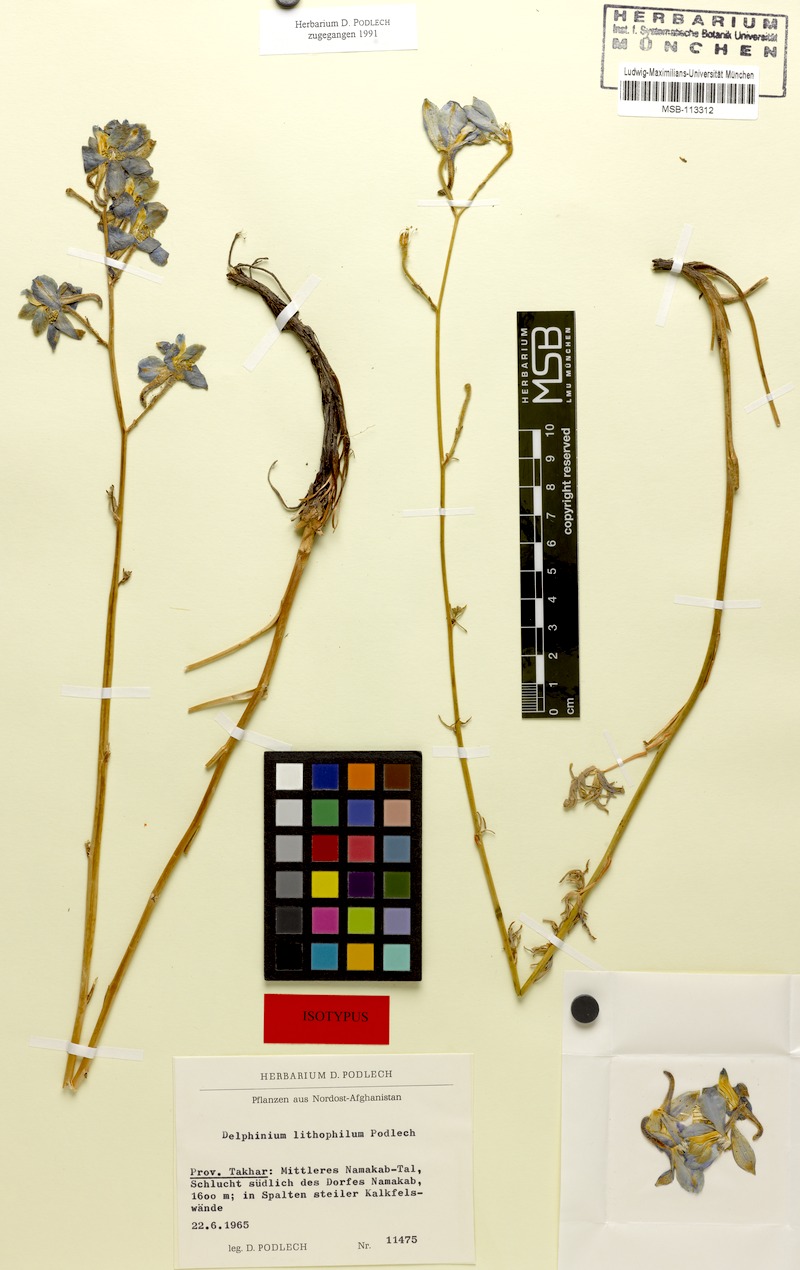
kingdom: Plantae
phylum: Tracheophyta
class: Magnoliopsida
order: Ranunculales
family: Ranunculaceae
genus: Delphinium
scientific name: Delphinium lithophilum
